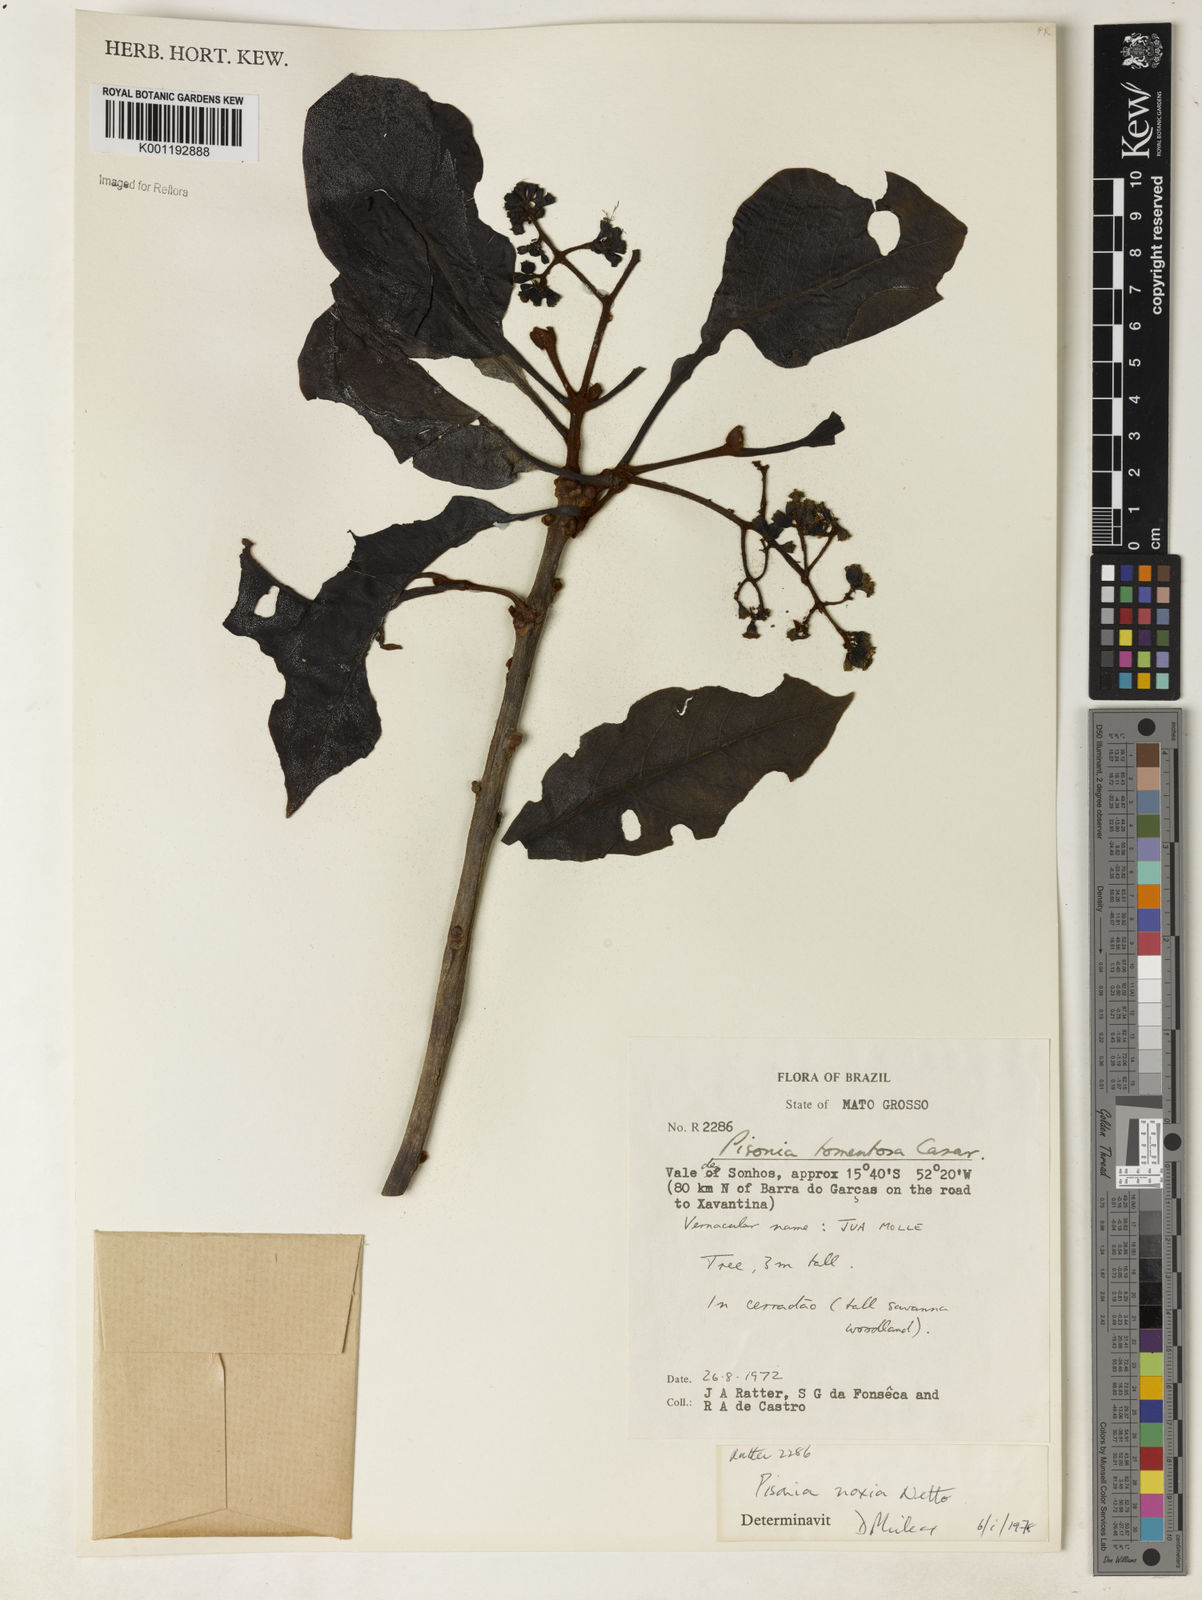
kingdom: Plantae
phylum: Tracheophyta
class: Magnoliopsida
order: Caryophyllales
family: Nyctaginaceae
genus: Guapira
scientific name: Guapira noxia
